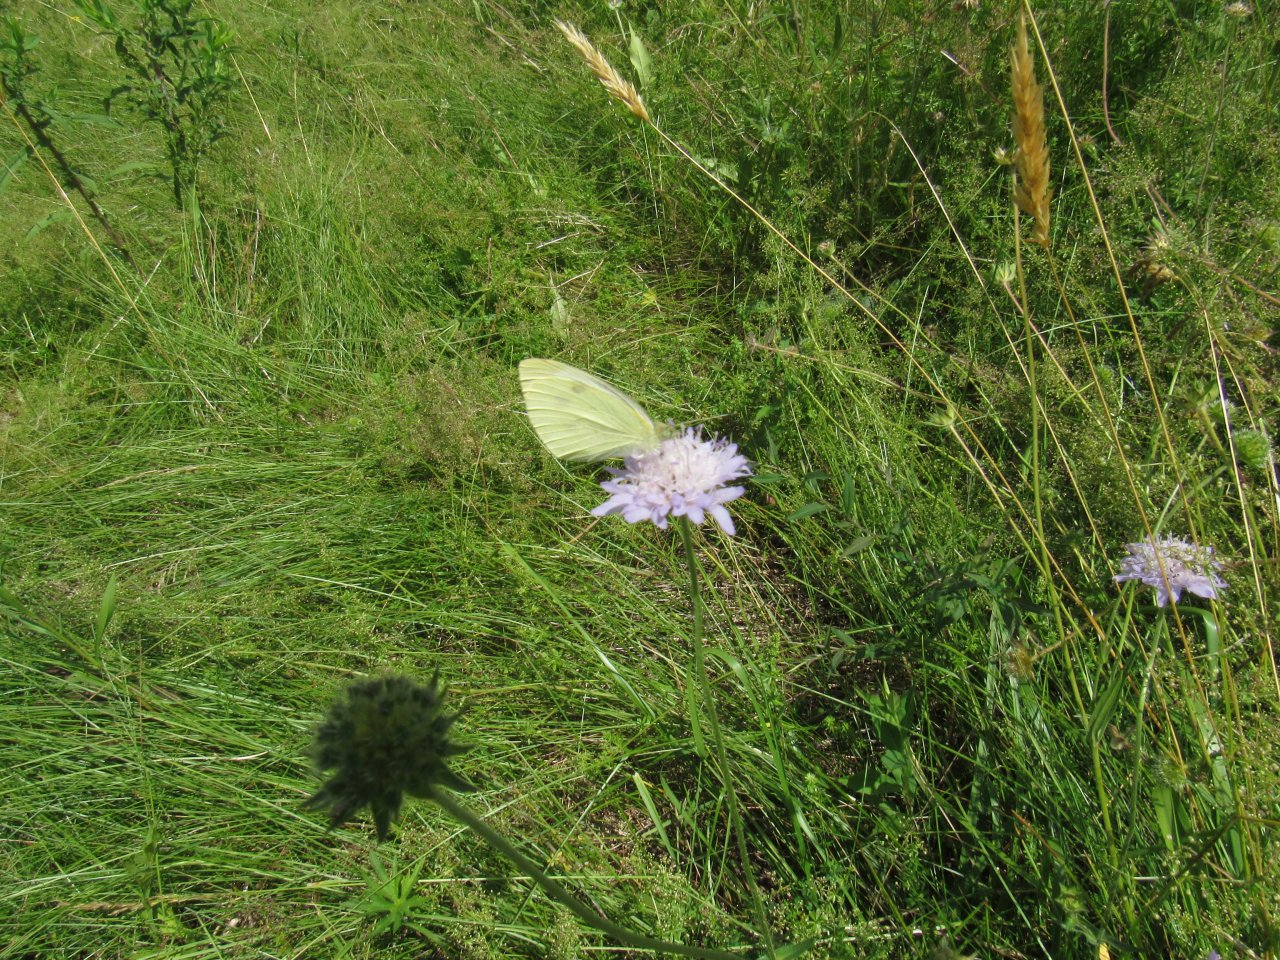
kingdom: Animalia
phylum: Arthropoda
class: Insecta
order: Lepidoptera
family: Pieridae
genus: Pieris
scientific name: Pieris rapae
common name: Cabbage White
